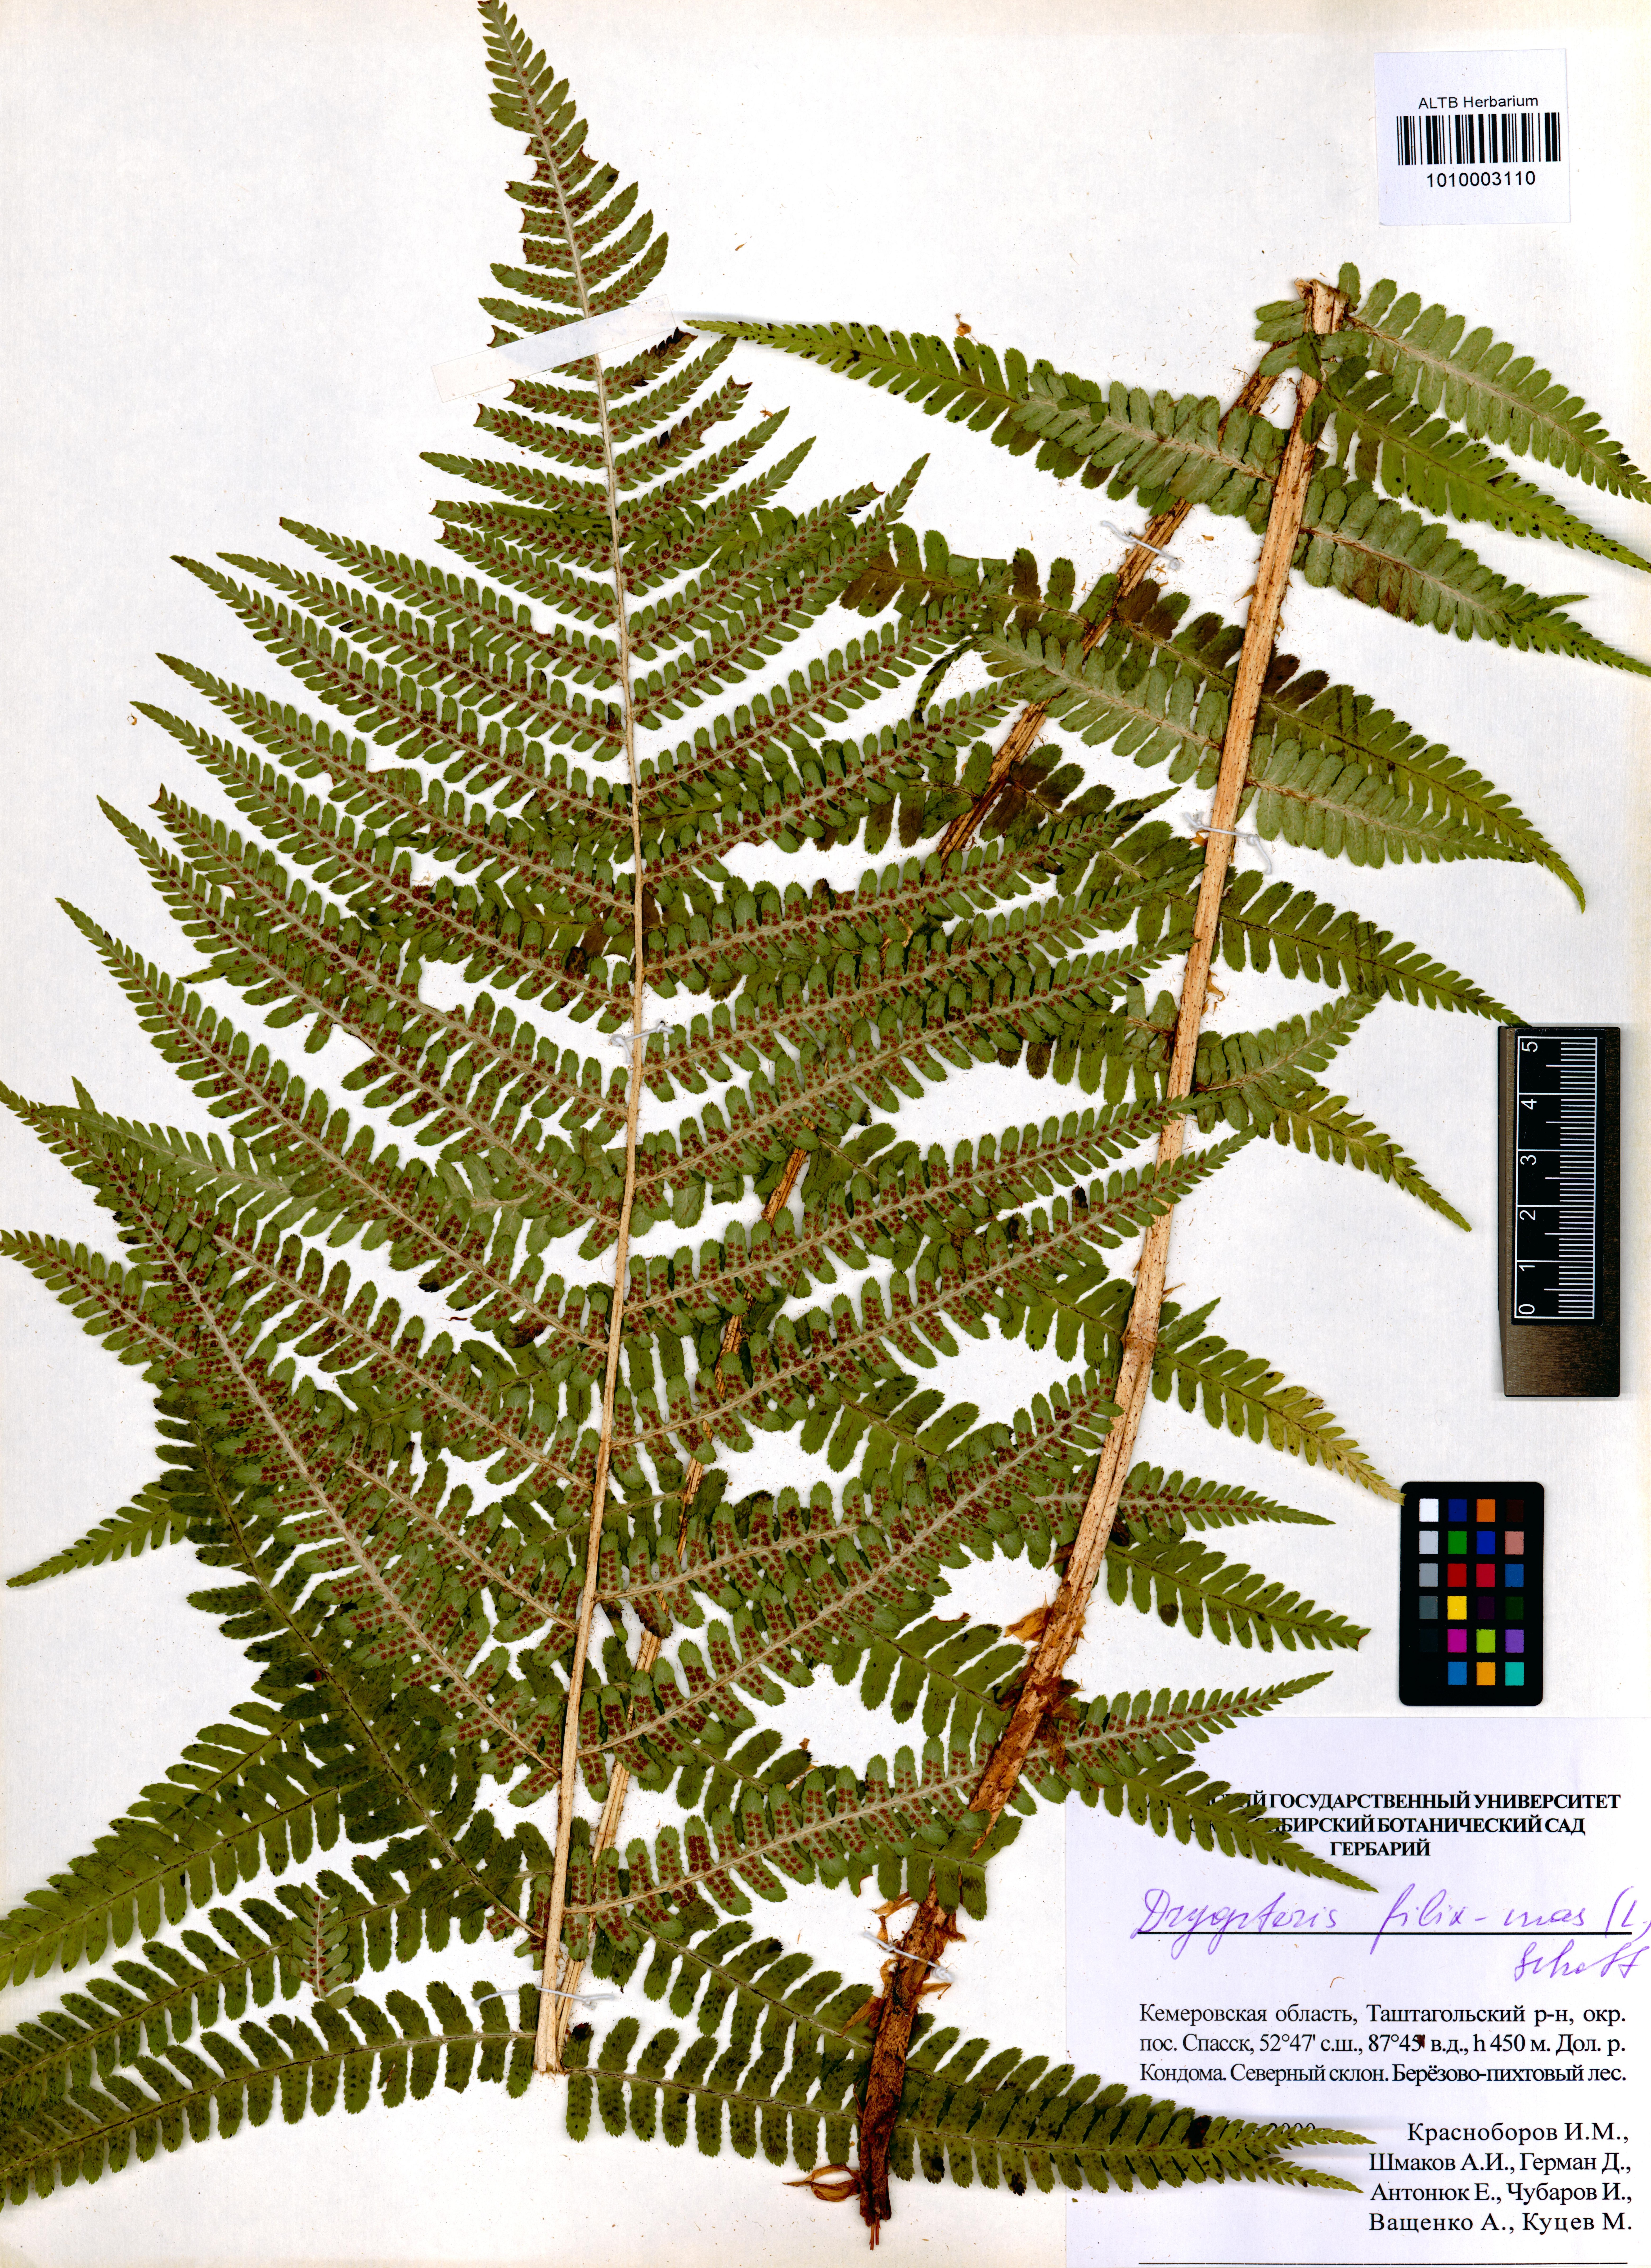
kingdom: Plantae
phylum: Tracheophyta
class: Polypodiopsida
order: Polypodiales
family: Dryopteridaceae
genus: Dryopteris
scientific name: Dryopteris filix-mas
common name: Male fern
